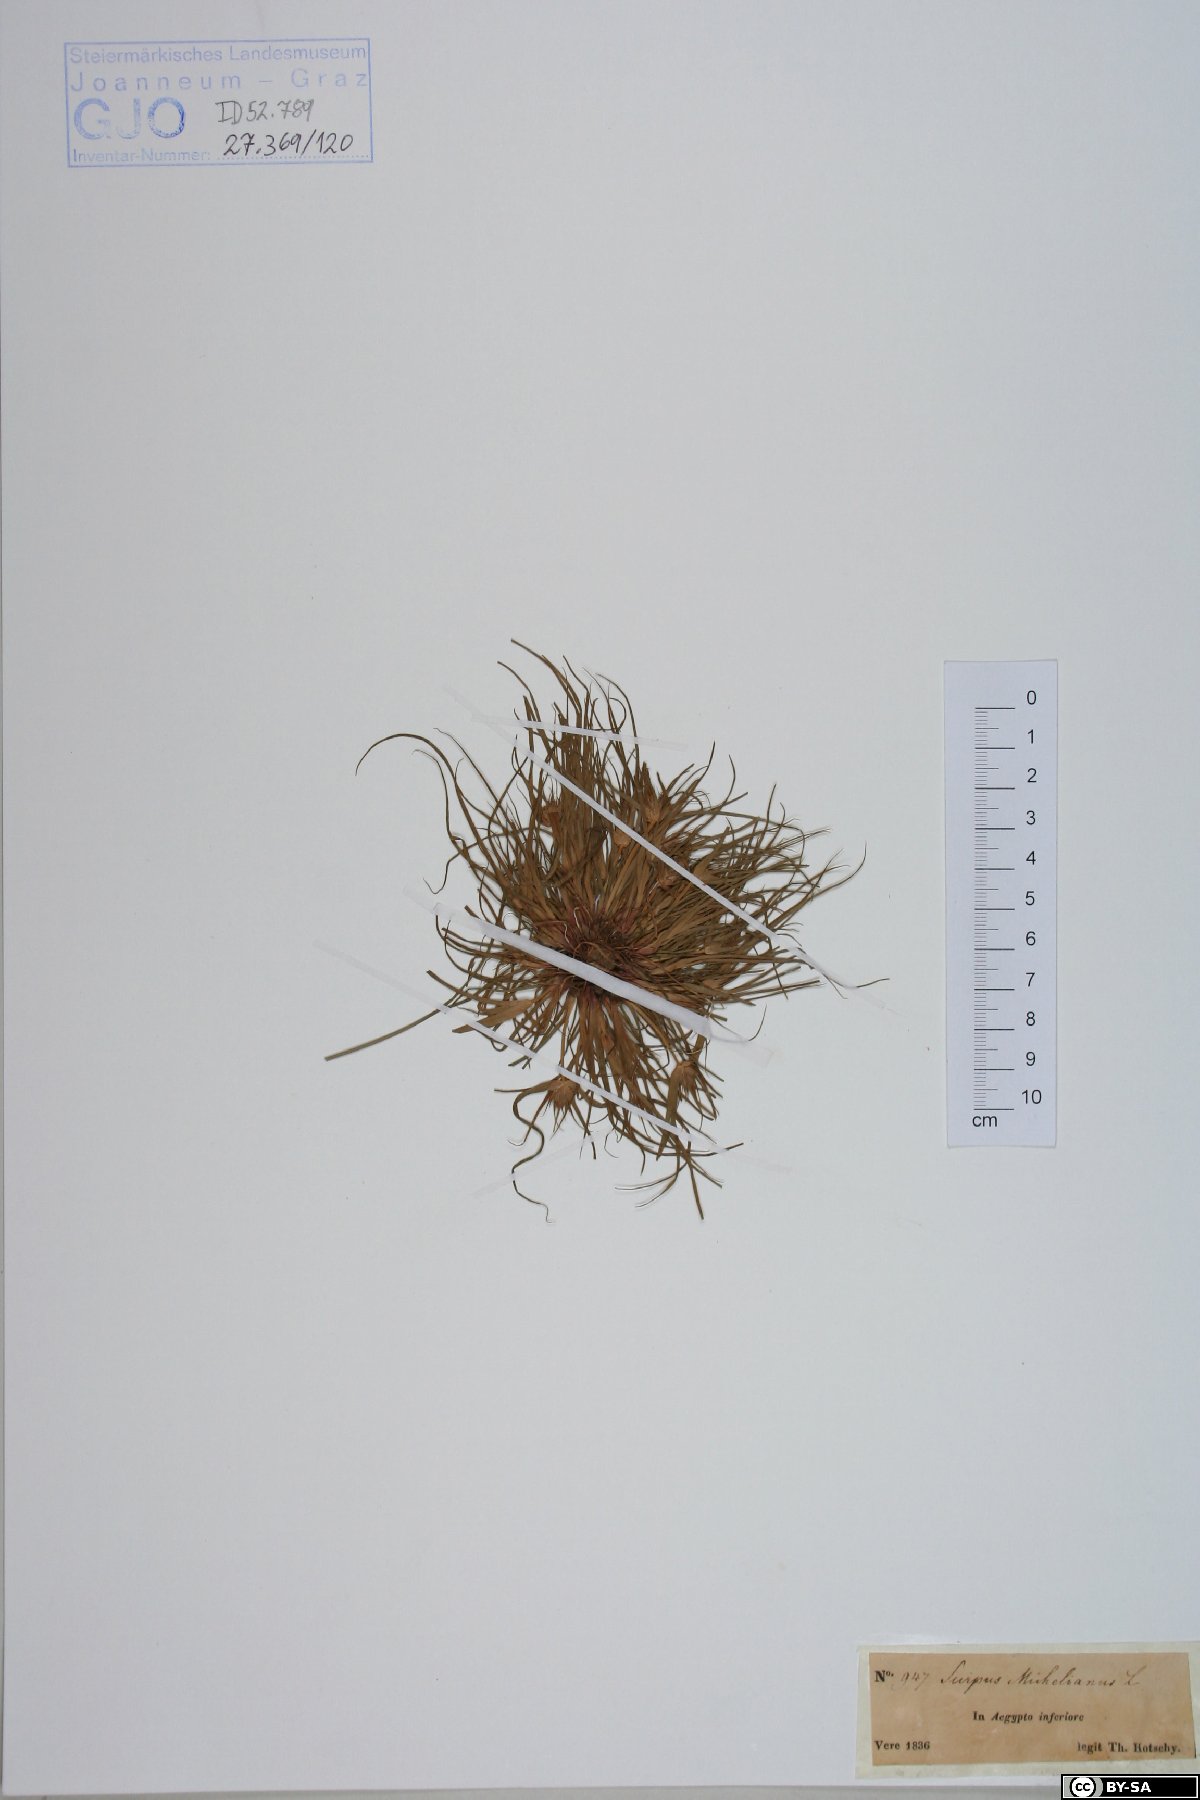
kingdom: Plantae
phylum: Tracheophyta
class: Liliopsida
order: Poales
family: Cyperaceae
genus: Cyperus
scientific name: Cyperus michelianus
